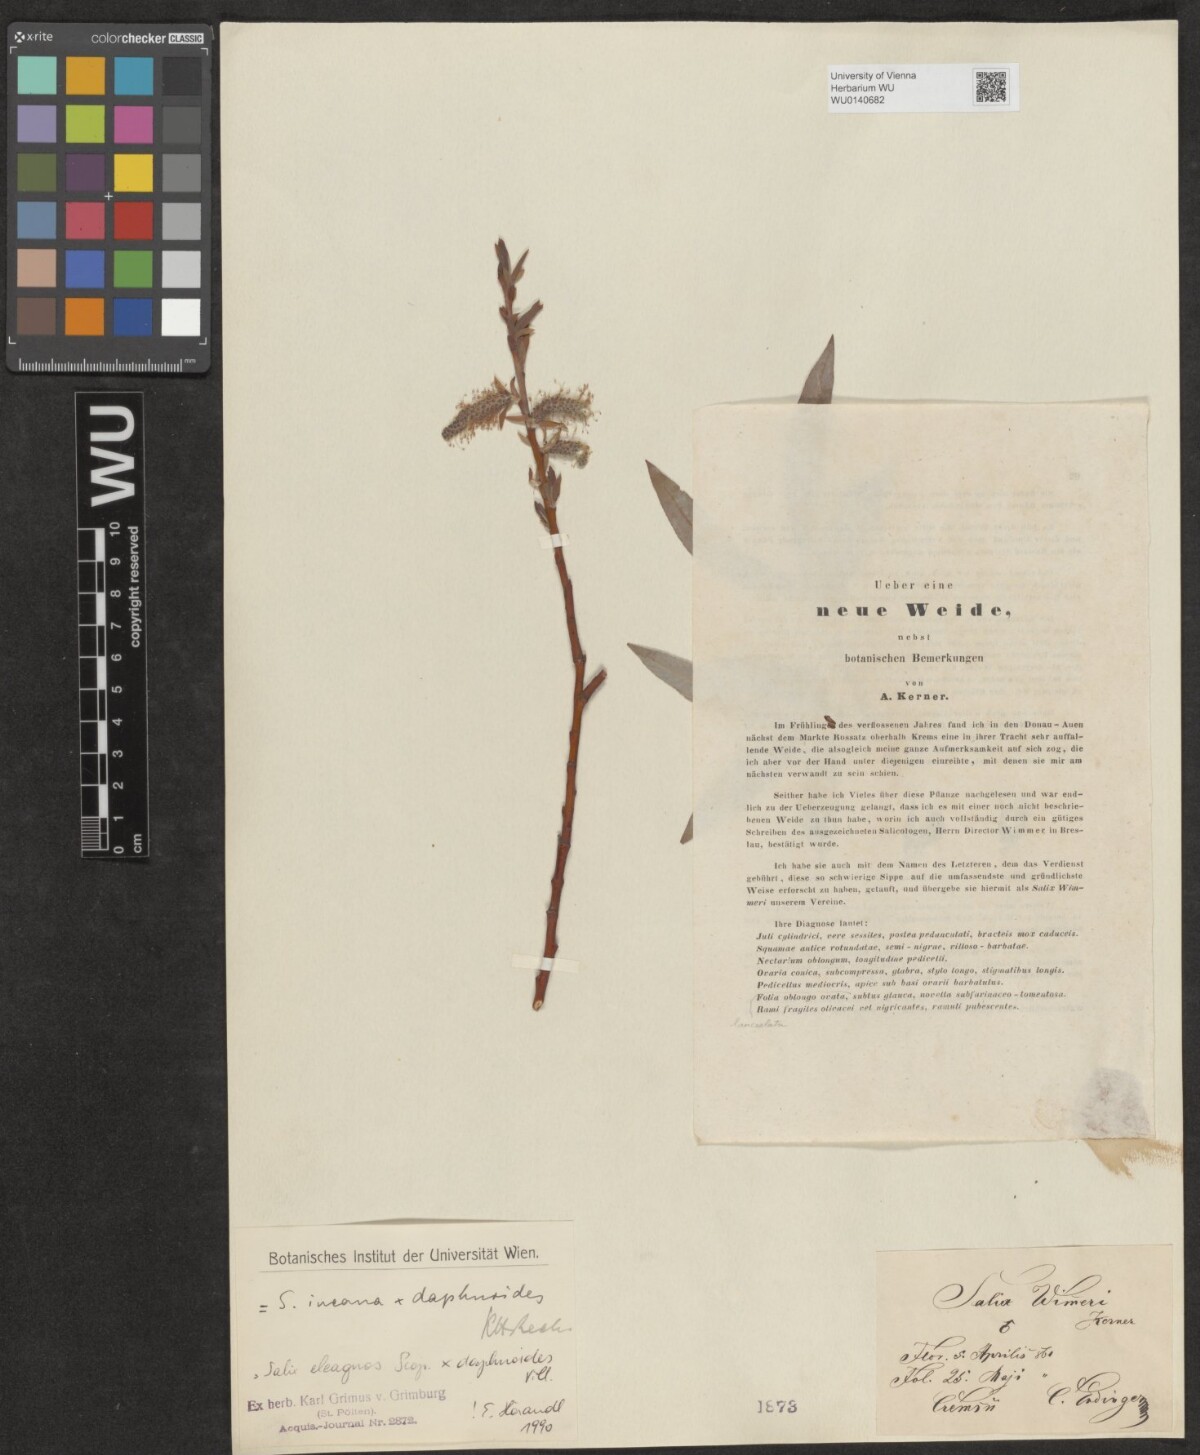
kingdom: Plantae
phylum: Tracheophyta
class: Magnoliopsida
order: Malpighiales
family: Salicaceae
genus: Salix
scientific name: Salix
